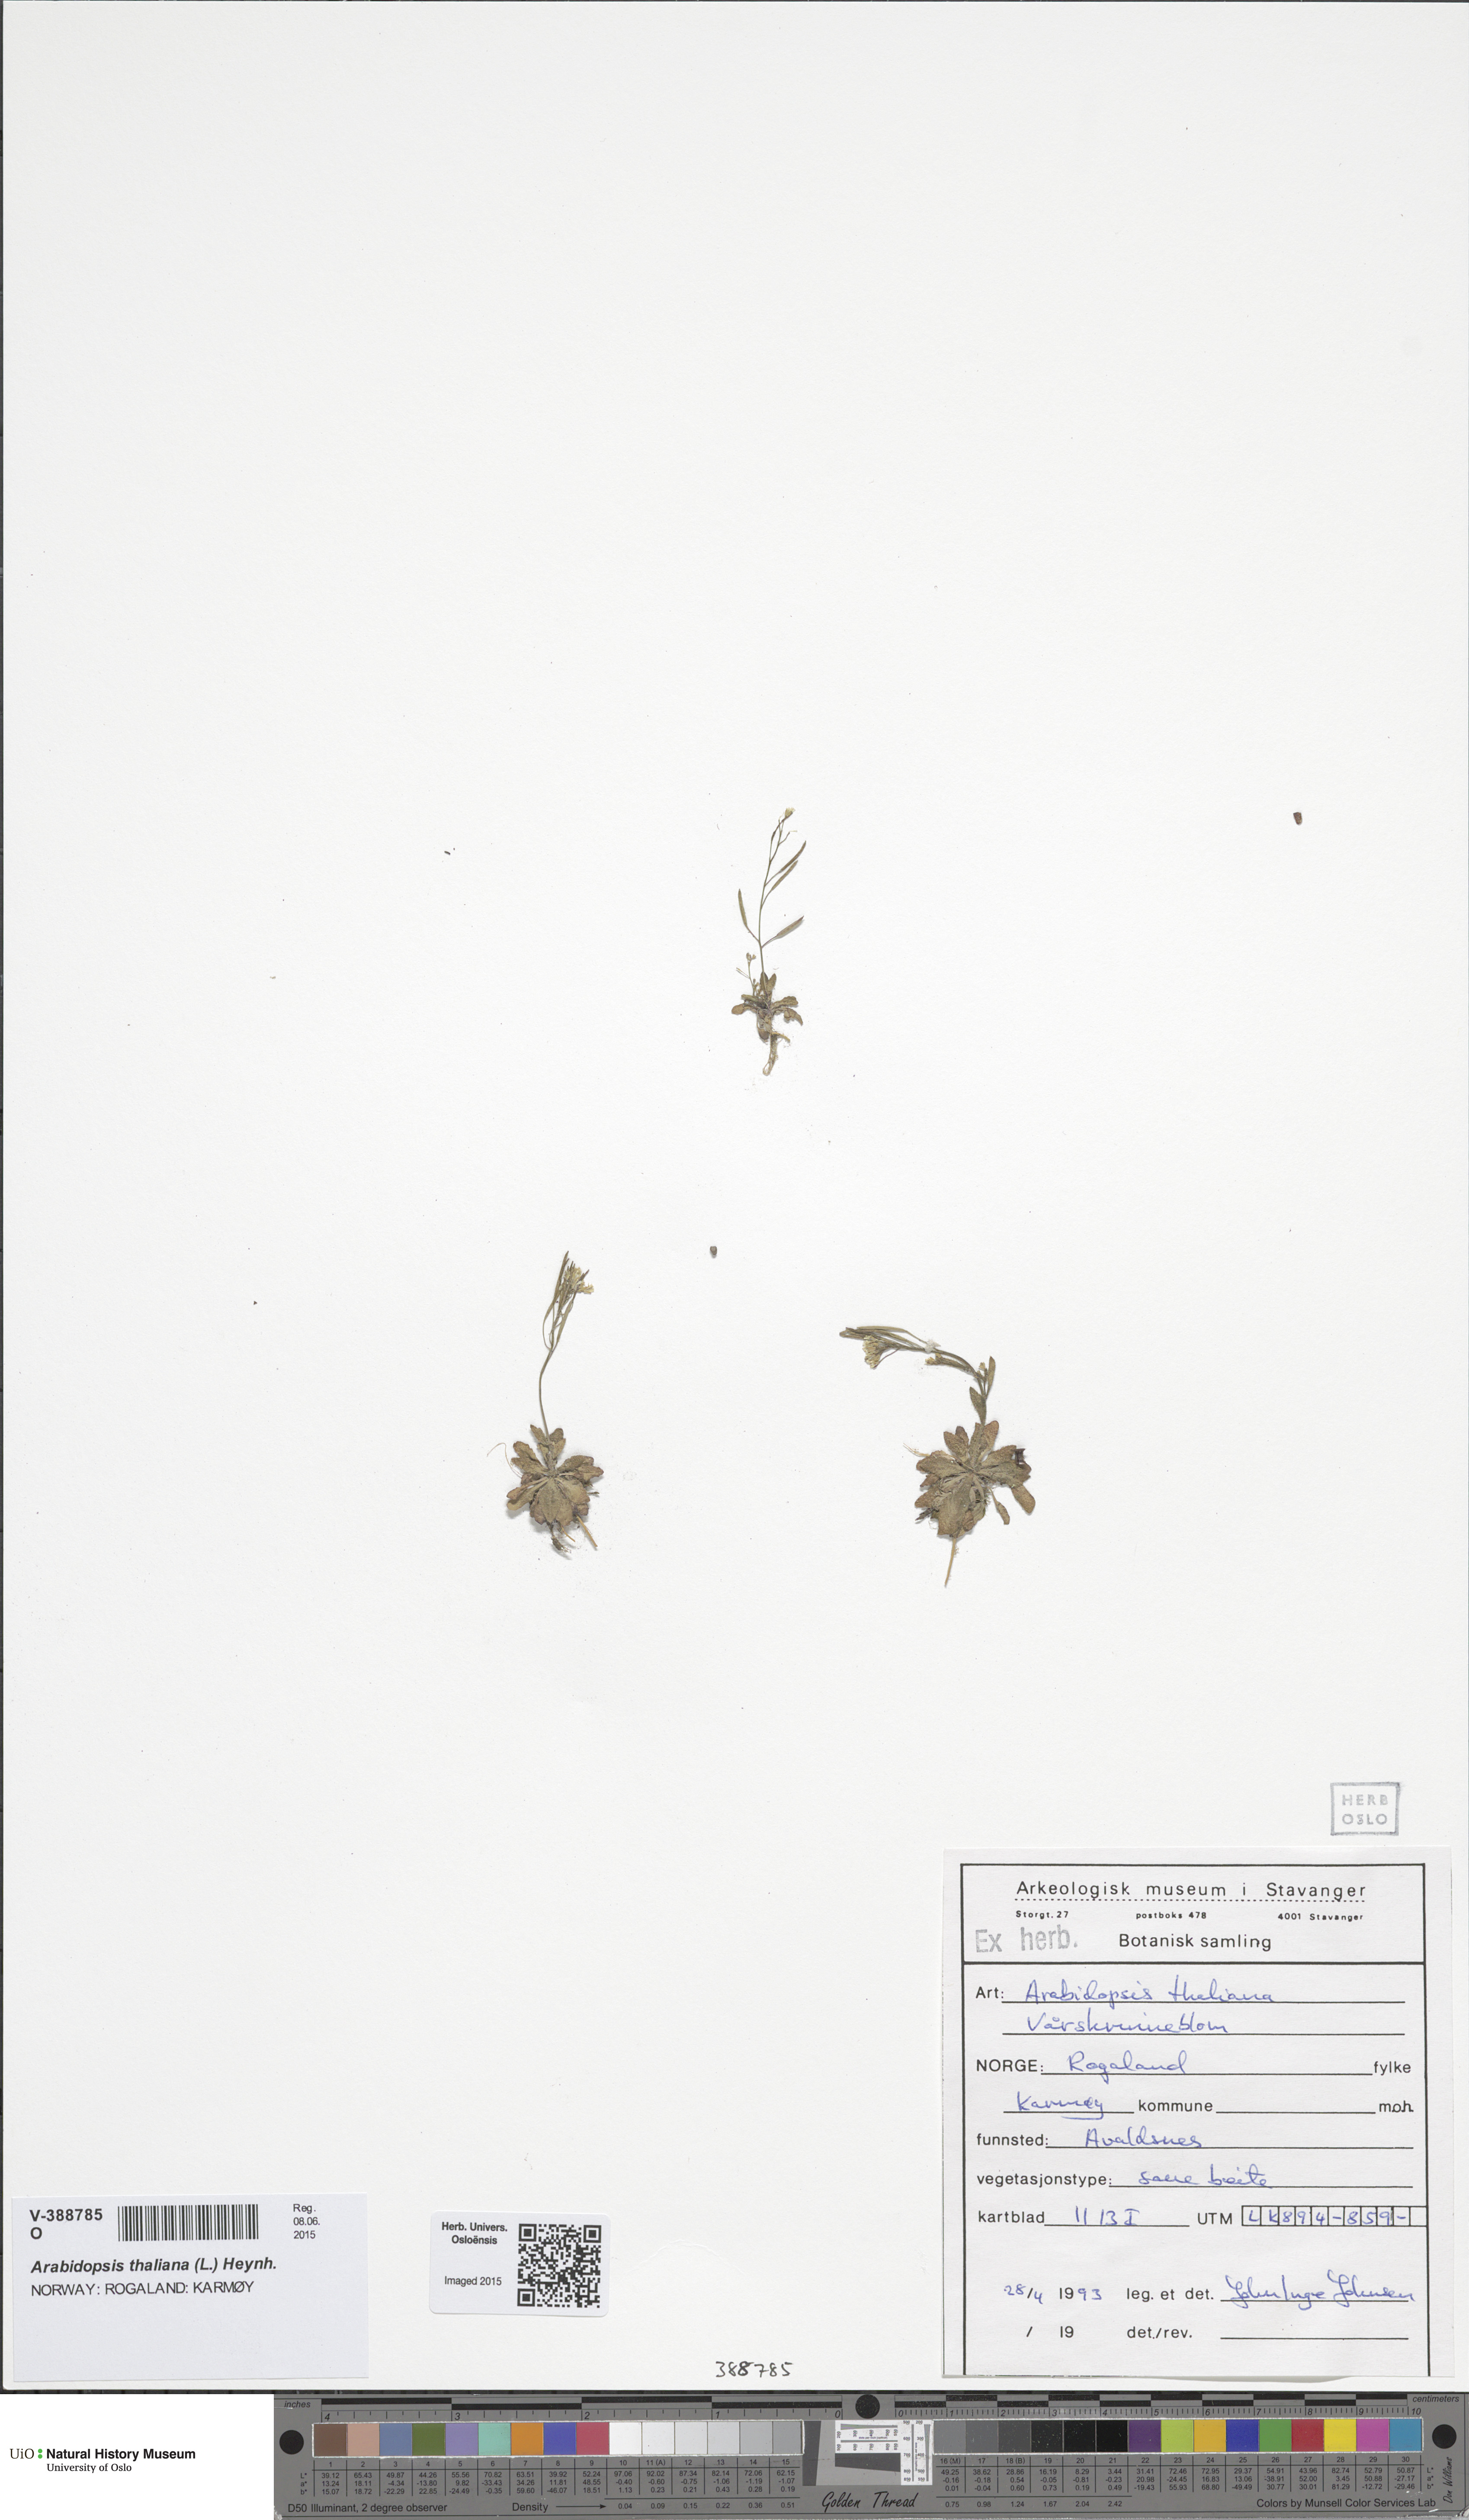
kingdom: Plantae
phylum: Tracheophyta
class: Magnoliopsida
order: Brassicales
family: Brassicaceae
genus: Arabidopsis
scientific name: Arabidopsis thaliana
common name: Thale cress
